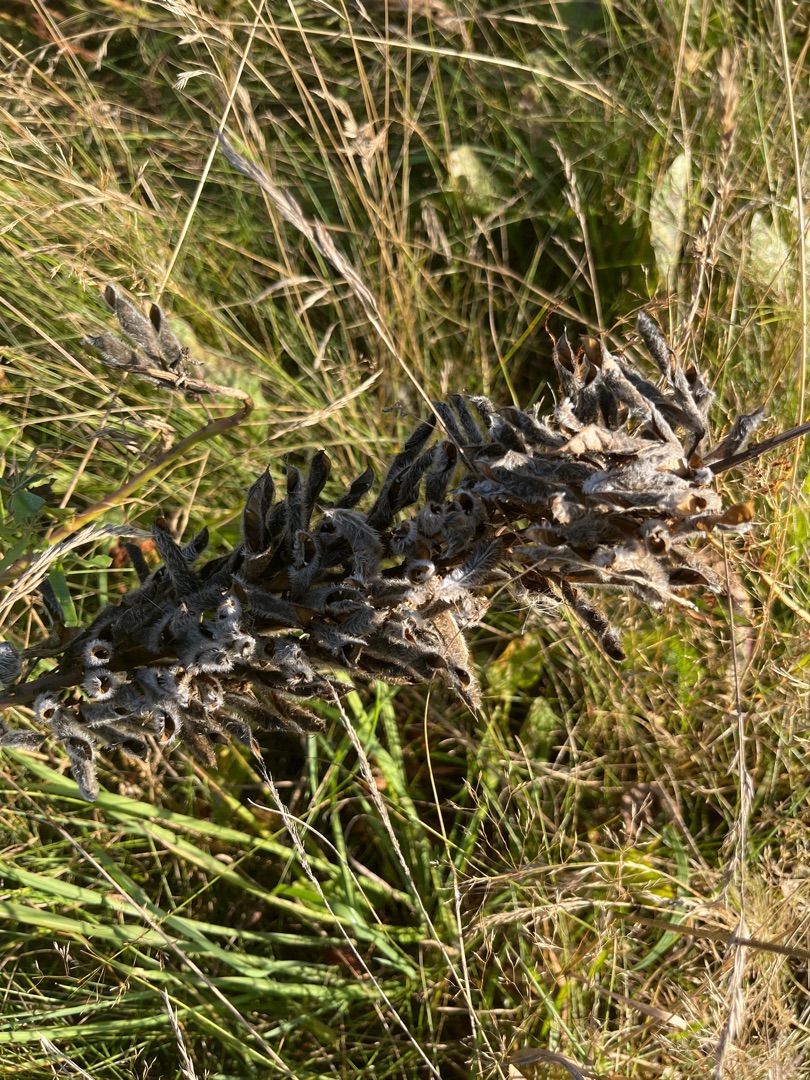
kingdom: Plantae
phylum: Tracheophyta
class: Magnoliopsida
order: Fabales
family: Fabaceae
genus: Lupinus
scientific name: Lupinus polyphyllus
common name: Mangebladet lupin
